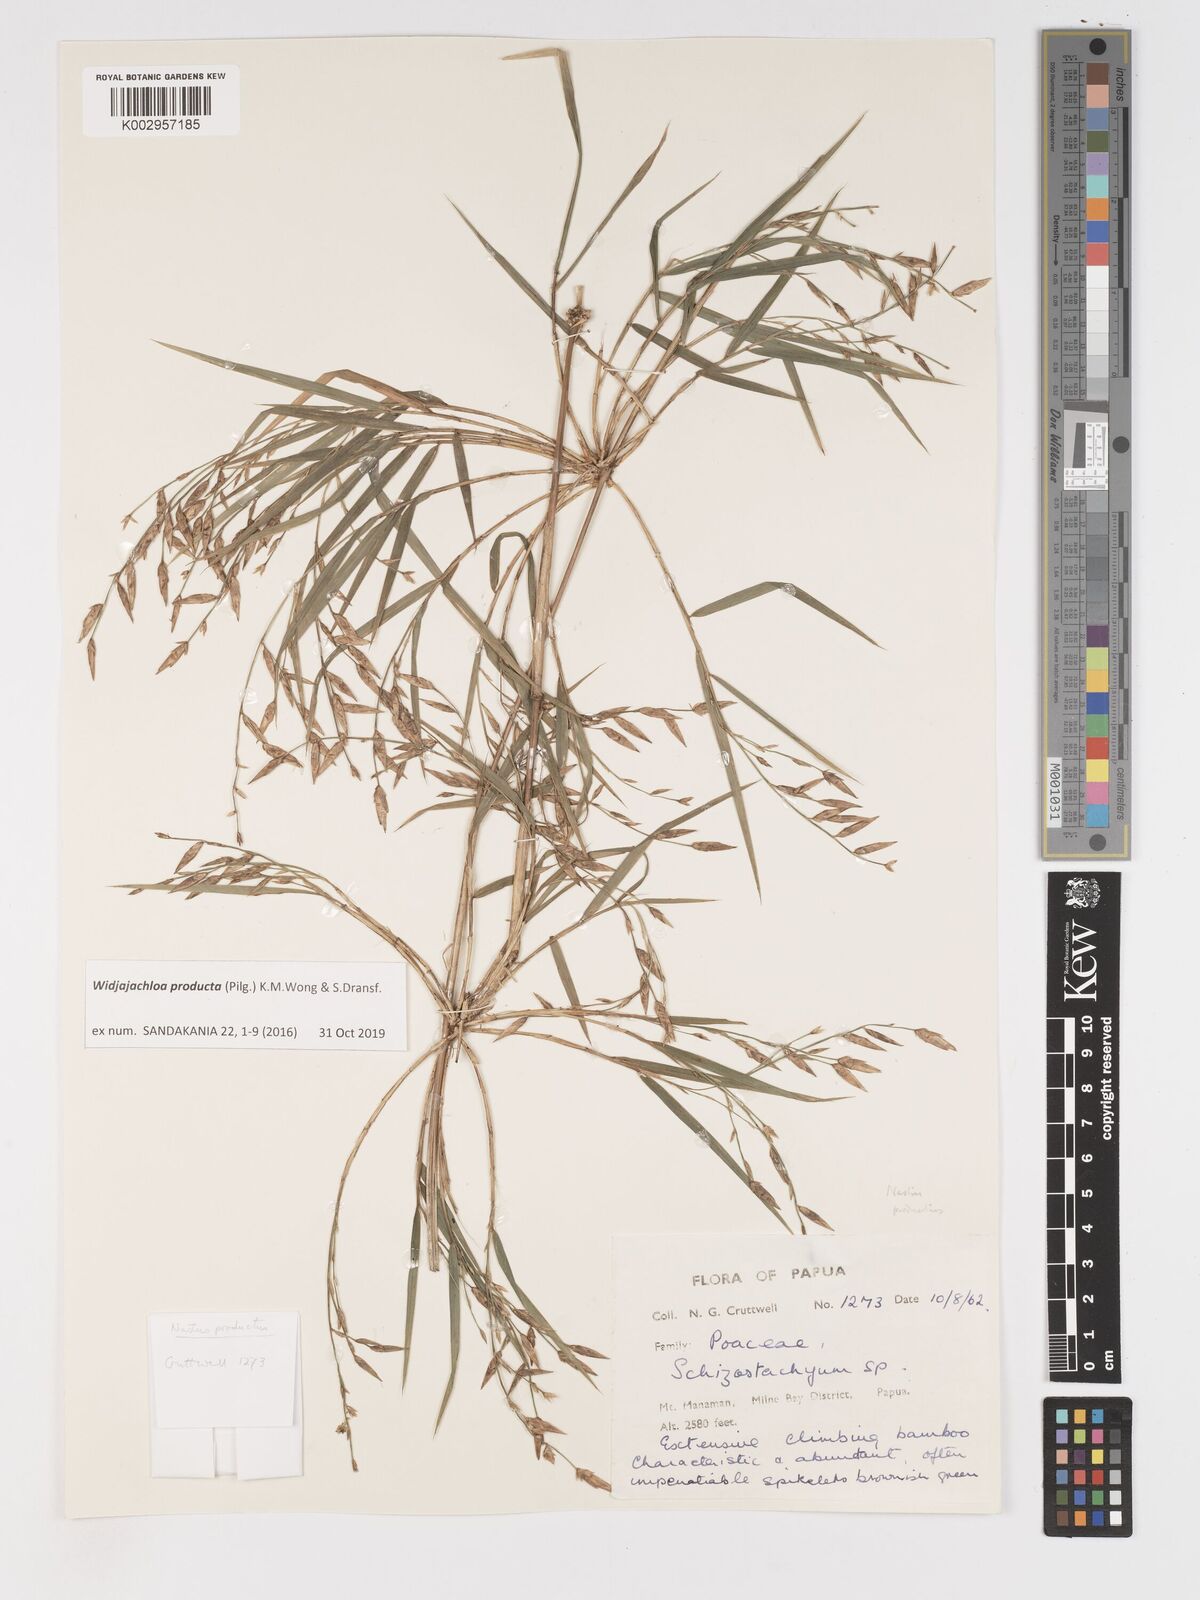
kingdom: Plantae
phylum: Tracheophyta
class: Liliopsida
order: Poales
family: Poaceae
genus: Widjajachloa
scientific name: Widjajachloa producta
